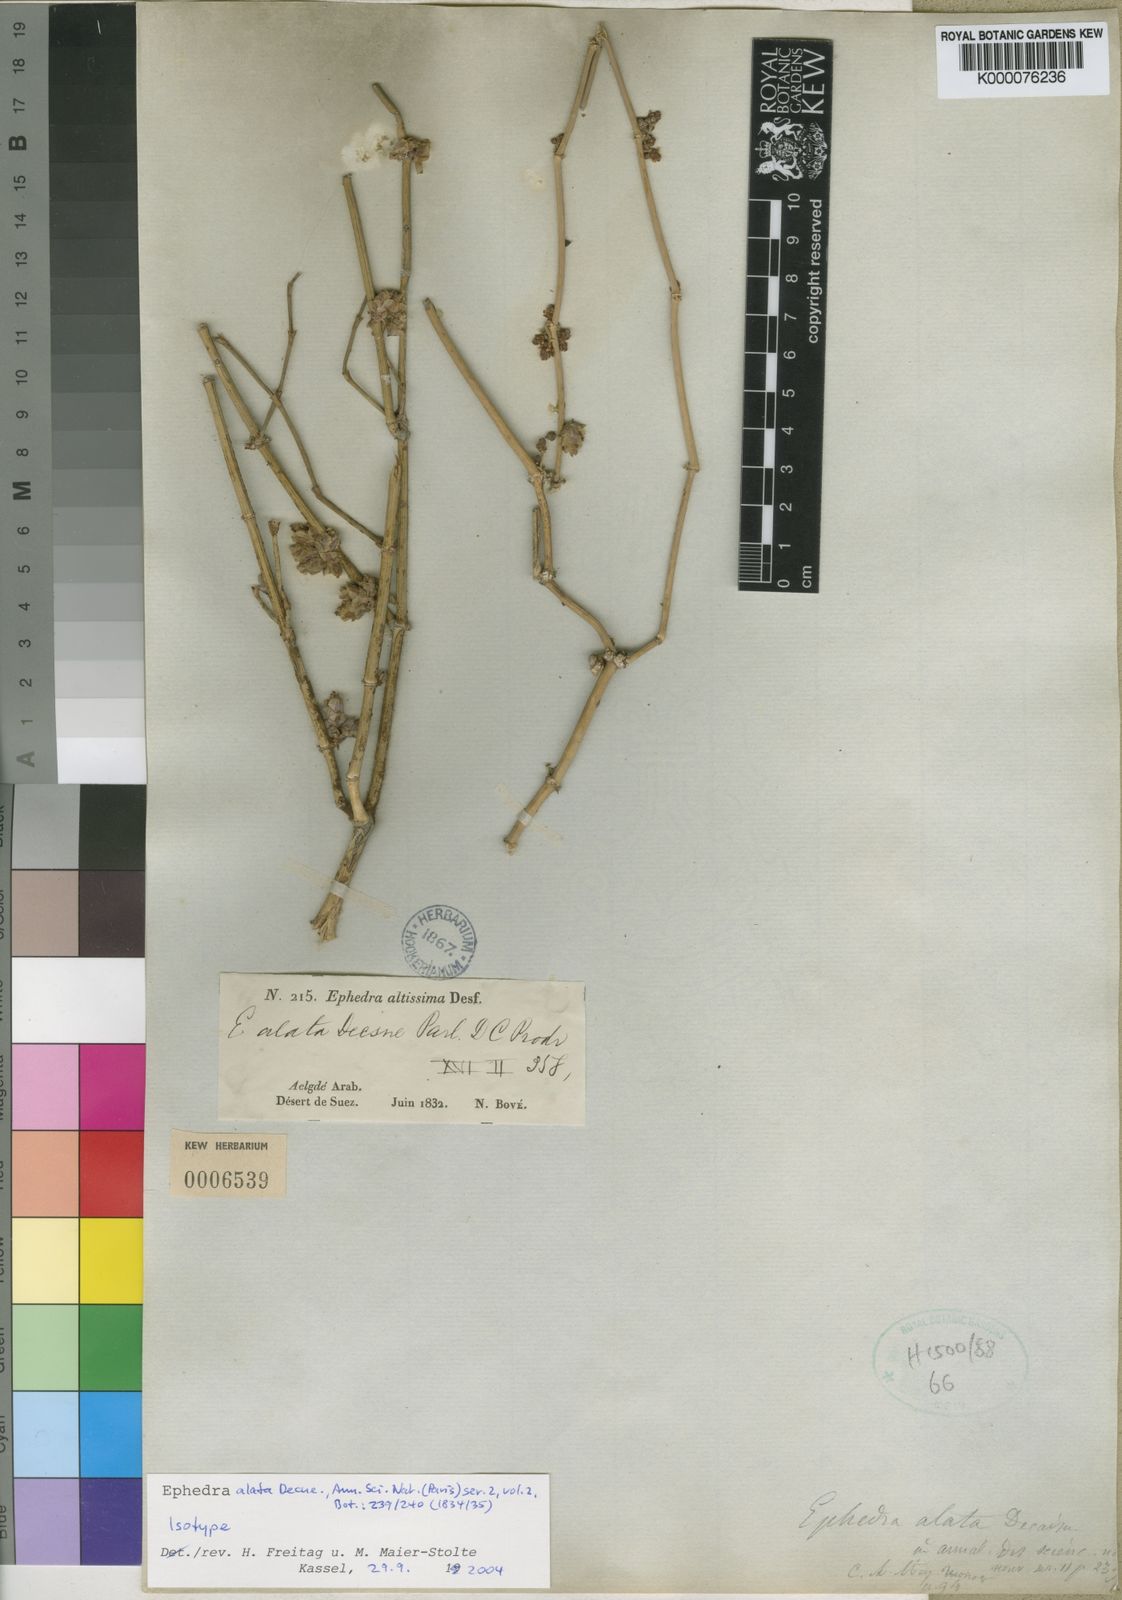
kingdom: Plantae
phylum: Tracheophyta
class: Gnetopsida
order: Ephedrales
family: Ephedraceae
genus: Ephedra
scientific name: Ephedra alata
